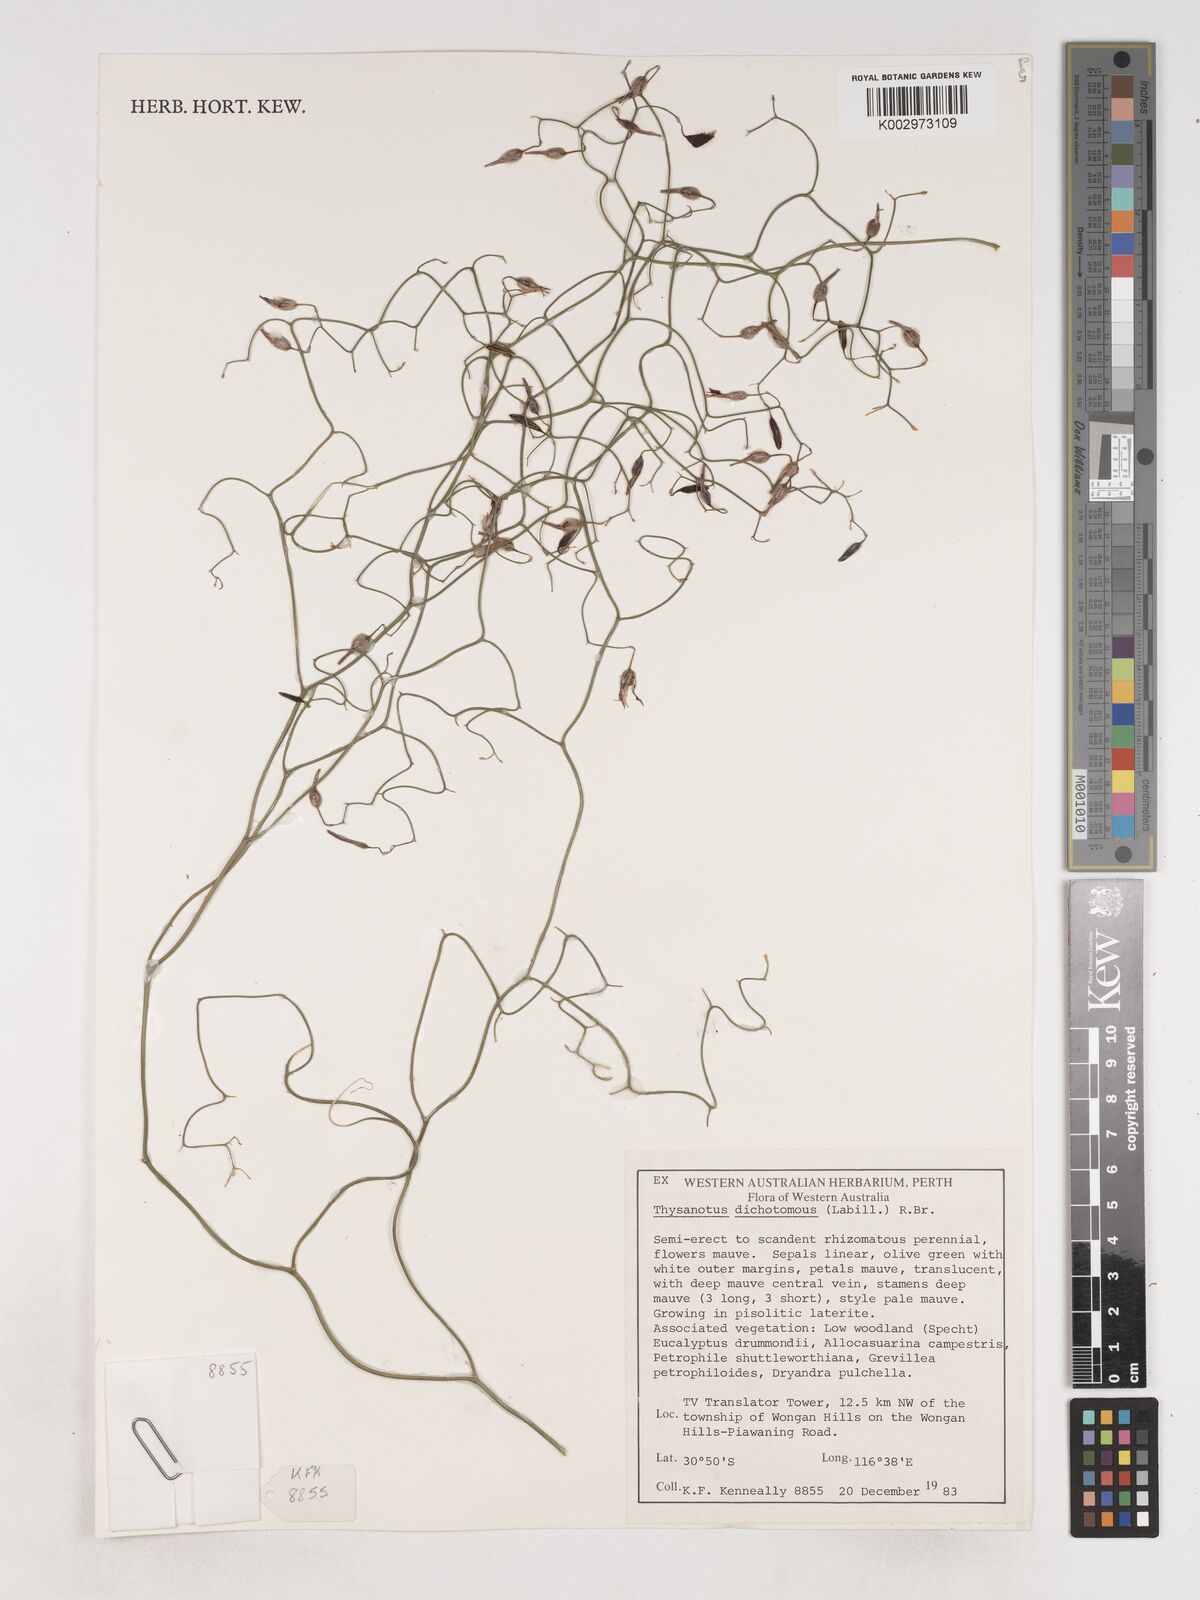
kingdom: Plantae
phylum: Tracheophyta
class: Liliopsida
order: Asparagales
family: Asparagaceae
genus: Thysanotus
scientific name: Thysanotus dichotomus
